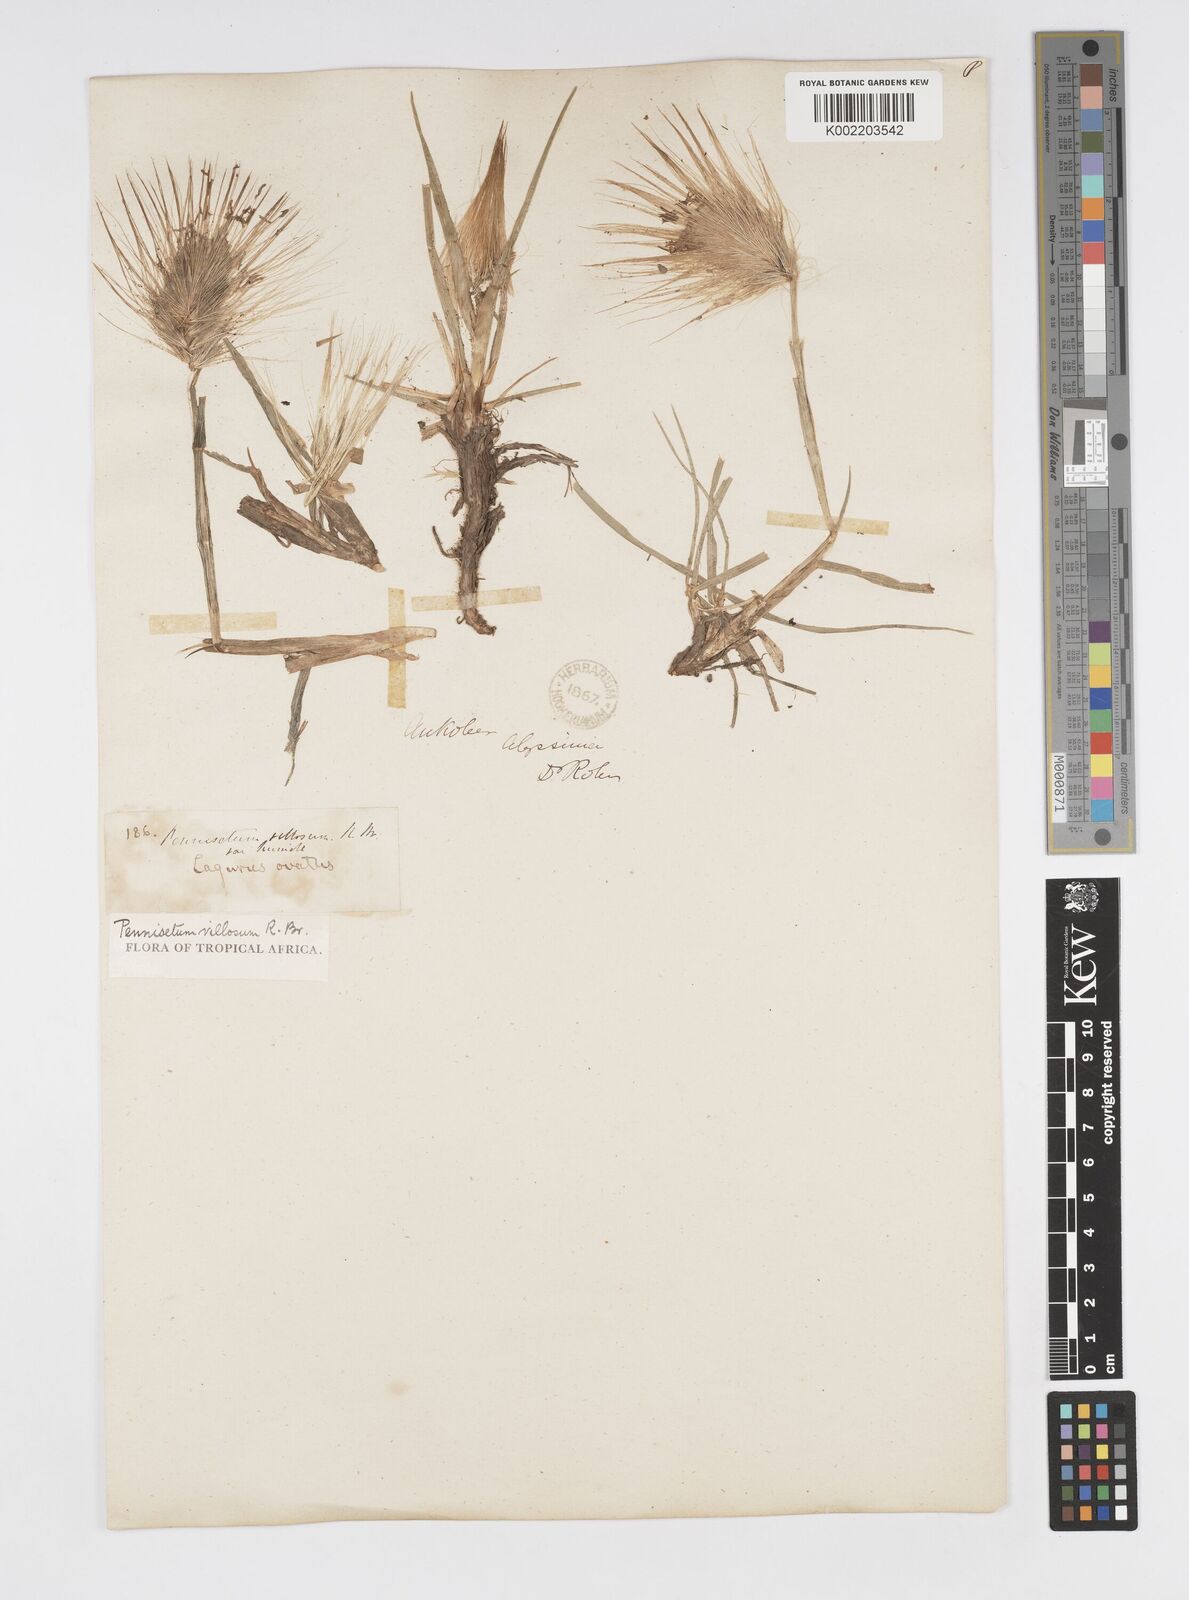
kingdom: Plantae
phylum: Tracheophyta
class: Liliopsida
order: Poales
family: Poaceae
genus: Cenchrus
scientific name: Cenchrus longisetus
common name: Feathertop
